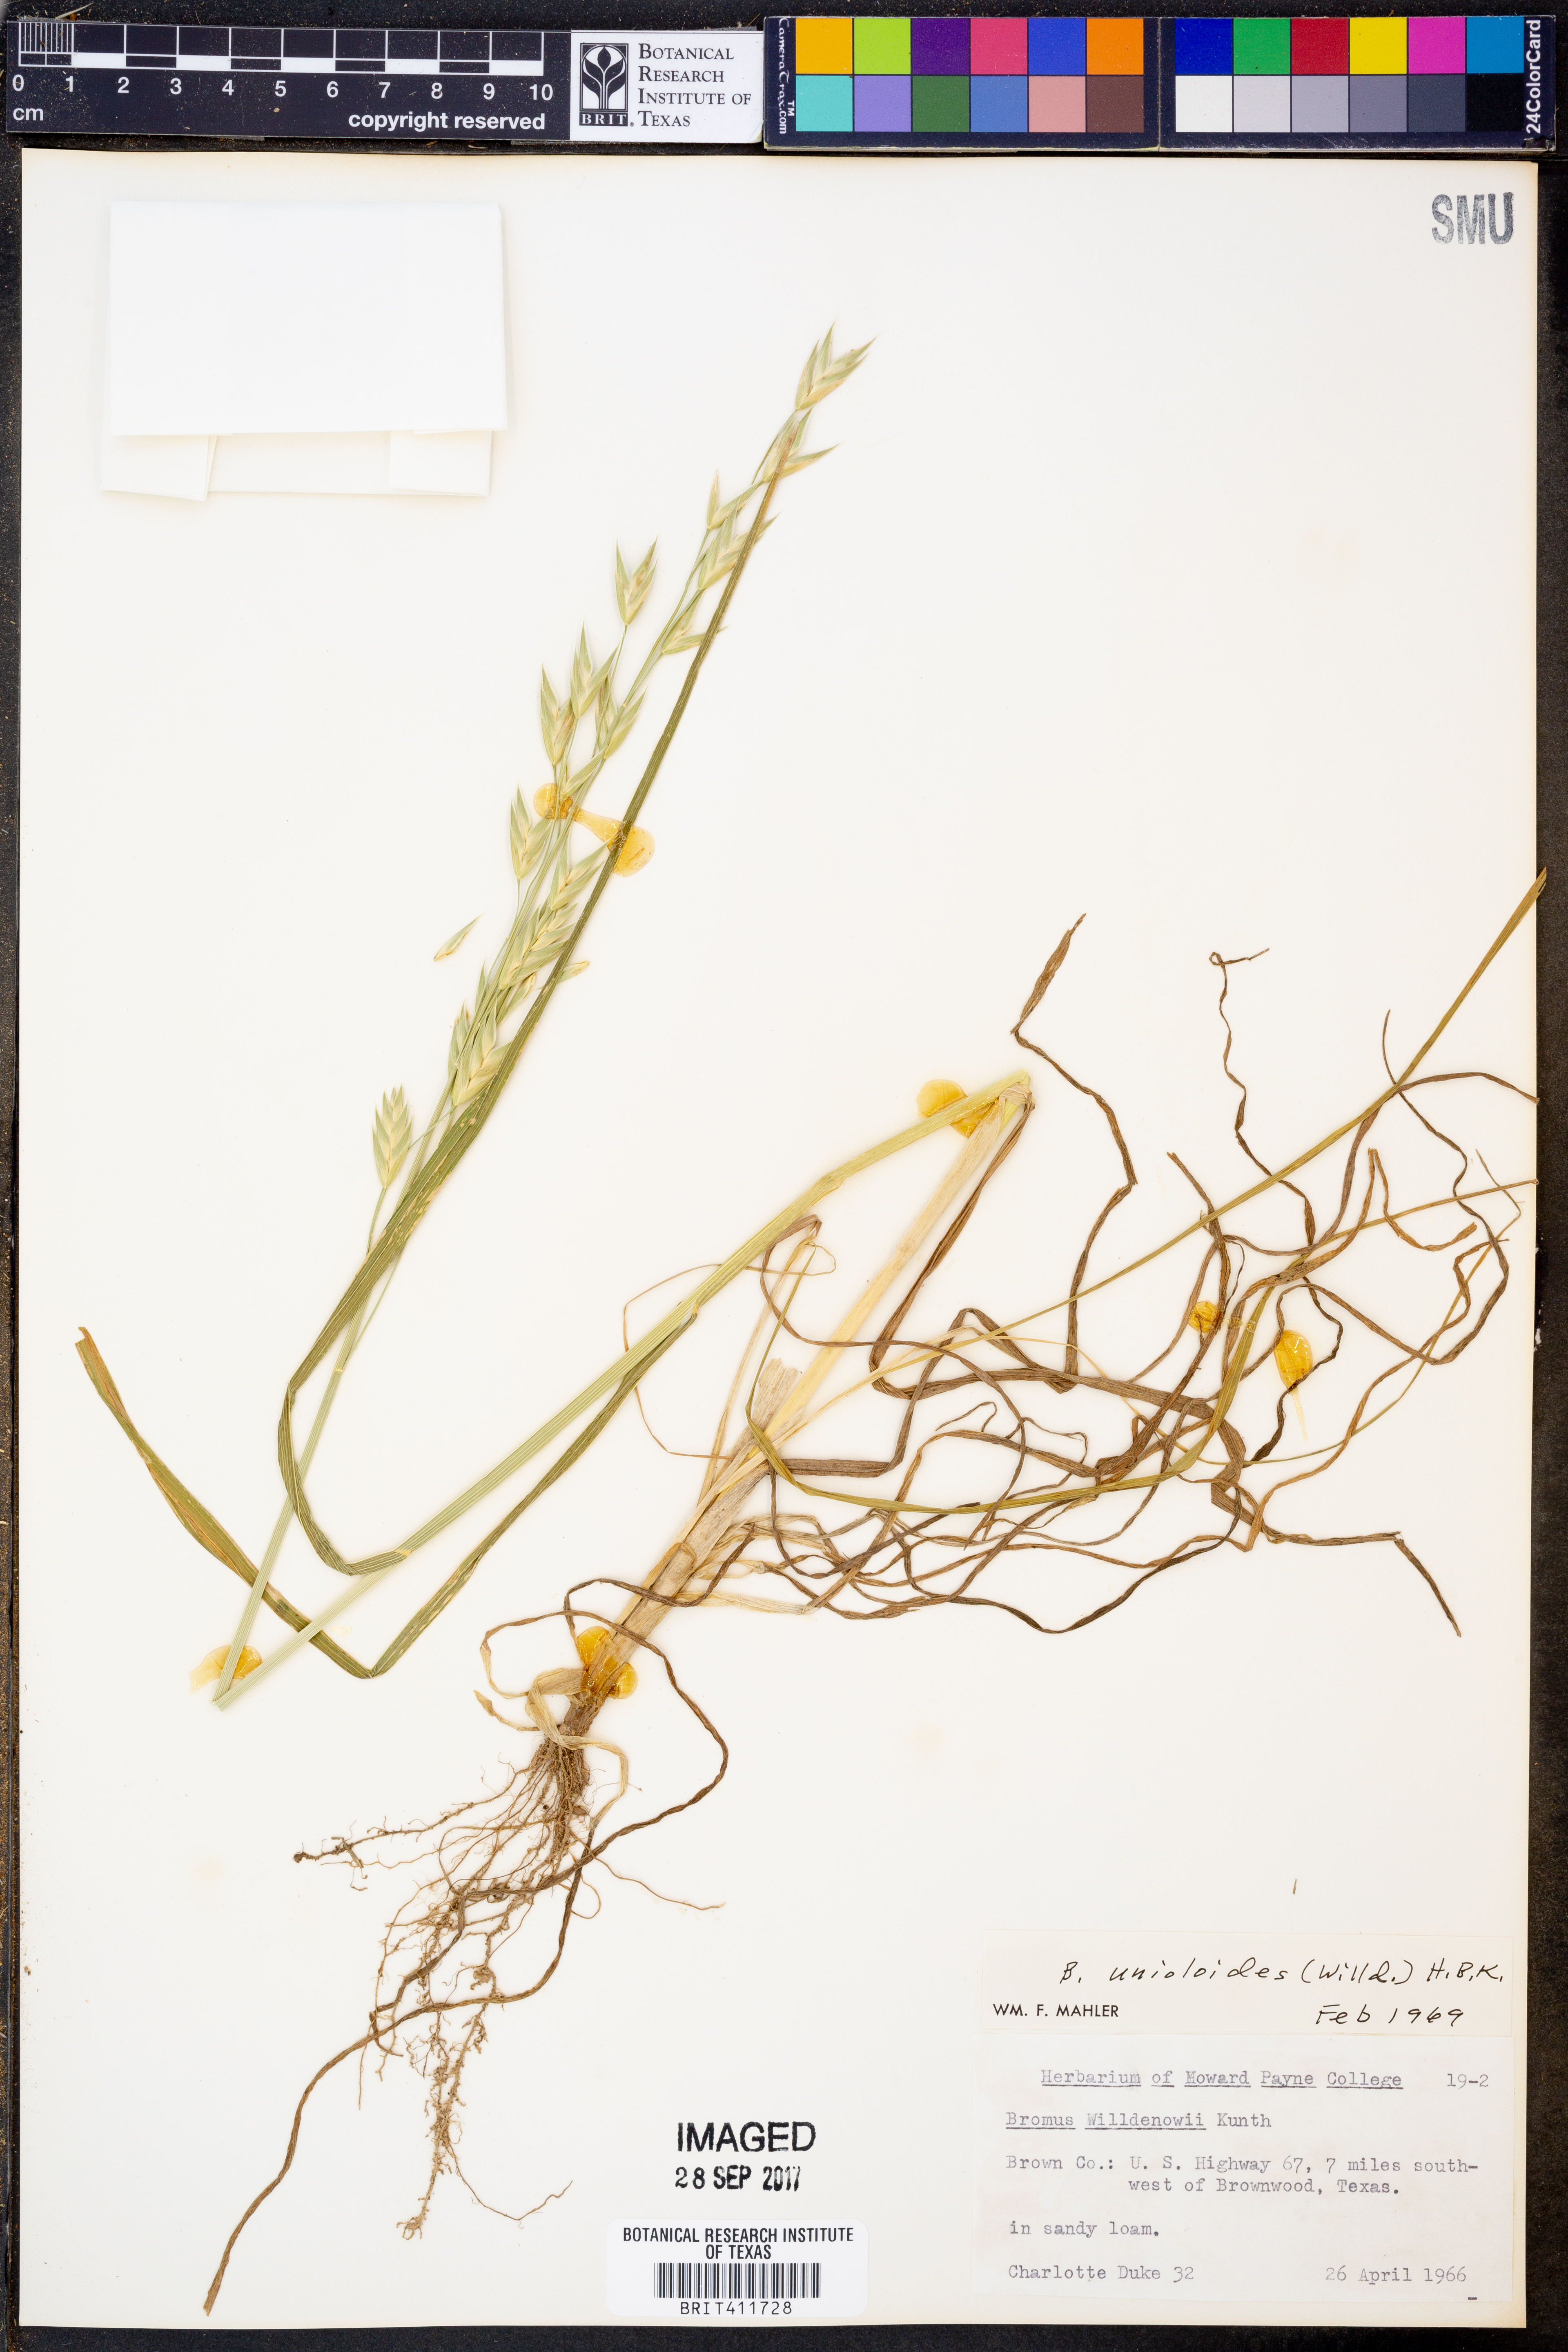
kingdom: Plantae
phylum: Tracheophyta
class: Liliopsida
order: Poales
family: Poaceae
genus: Bromus
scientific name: Bromus catharticus
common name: Rescuegrass
